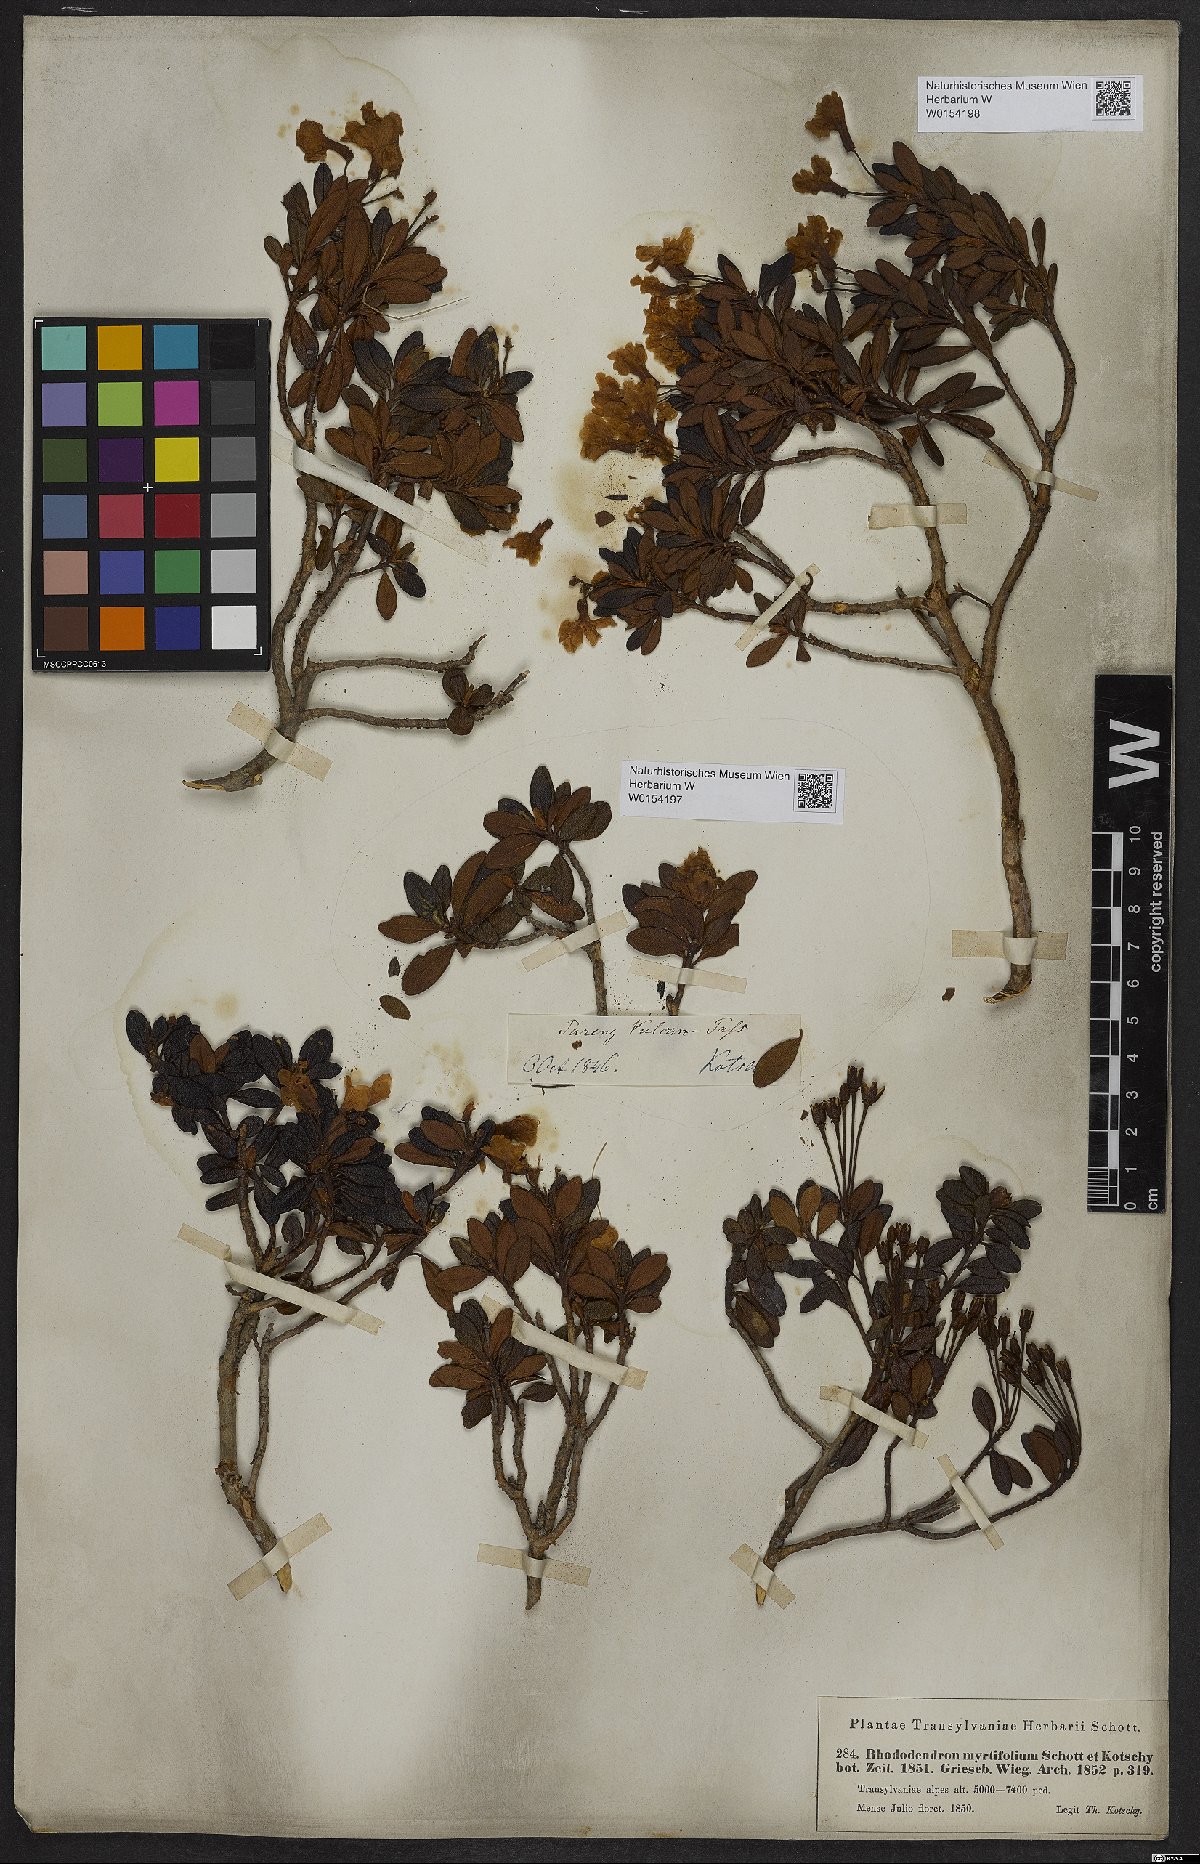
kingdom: Plantae
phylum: Tracheophyta
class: Magnoliopsida
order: Ericales
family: Ericaceae
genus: Rhododendron
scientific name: Rhododendron kotschyi
